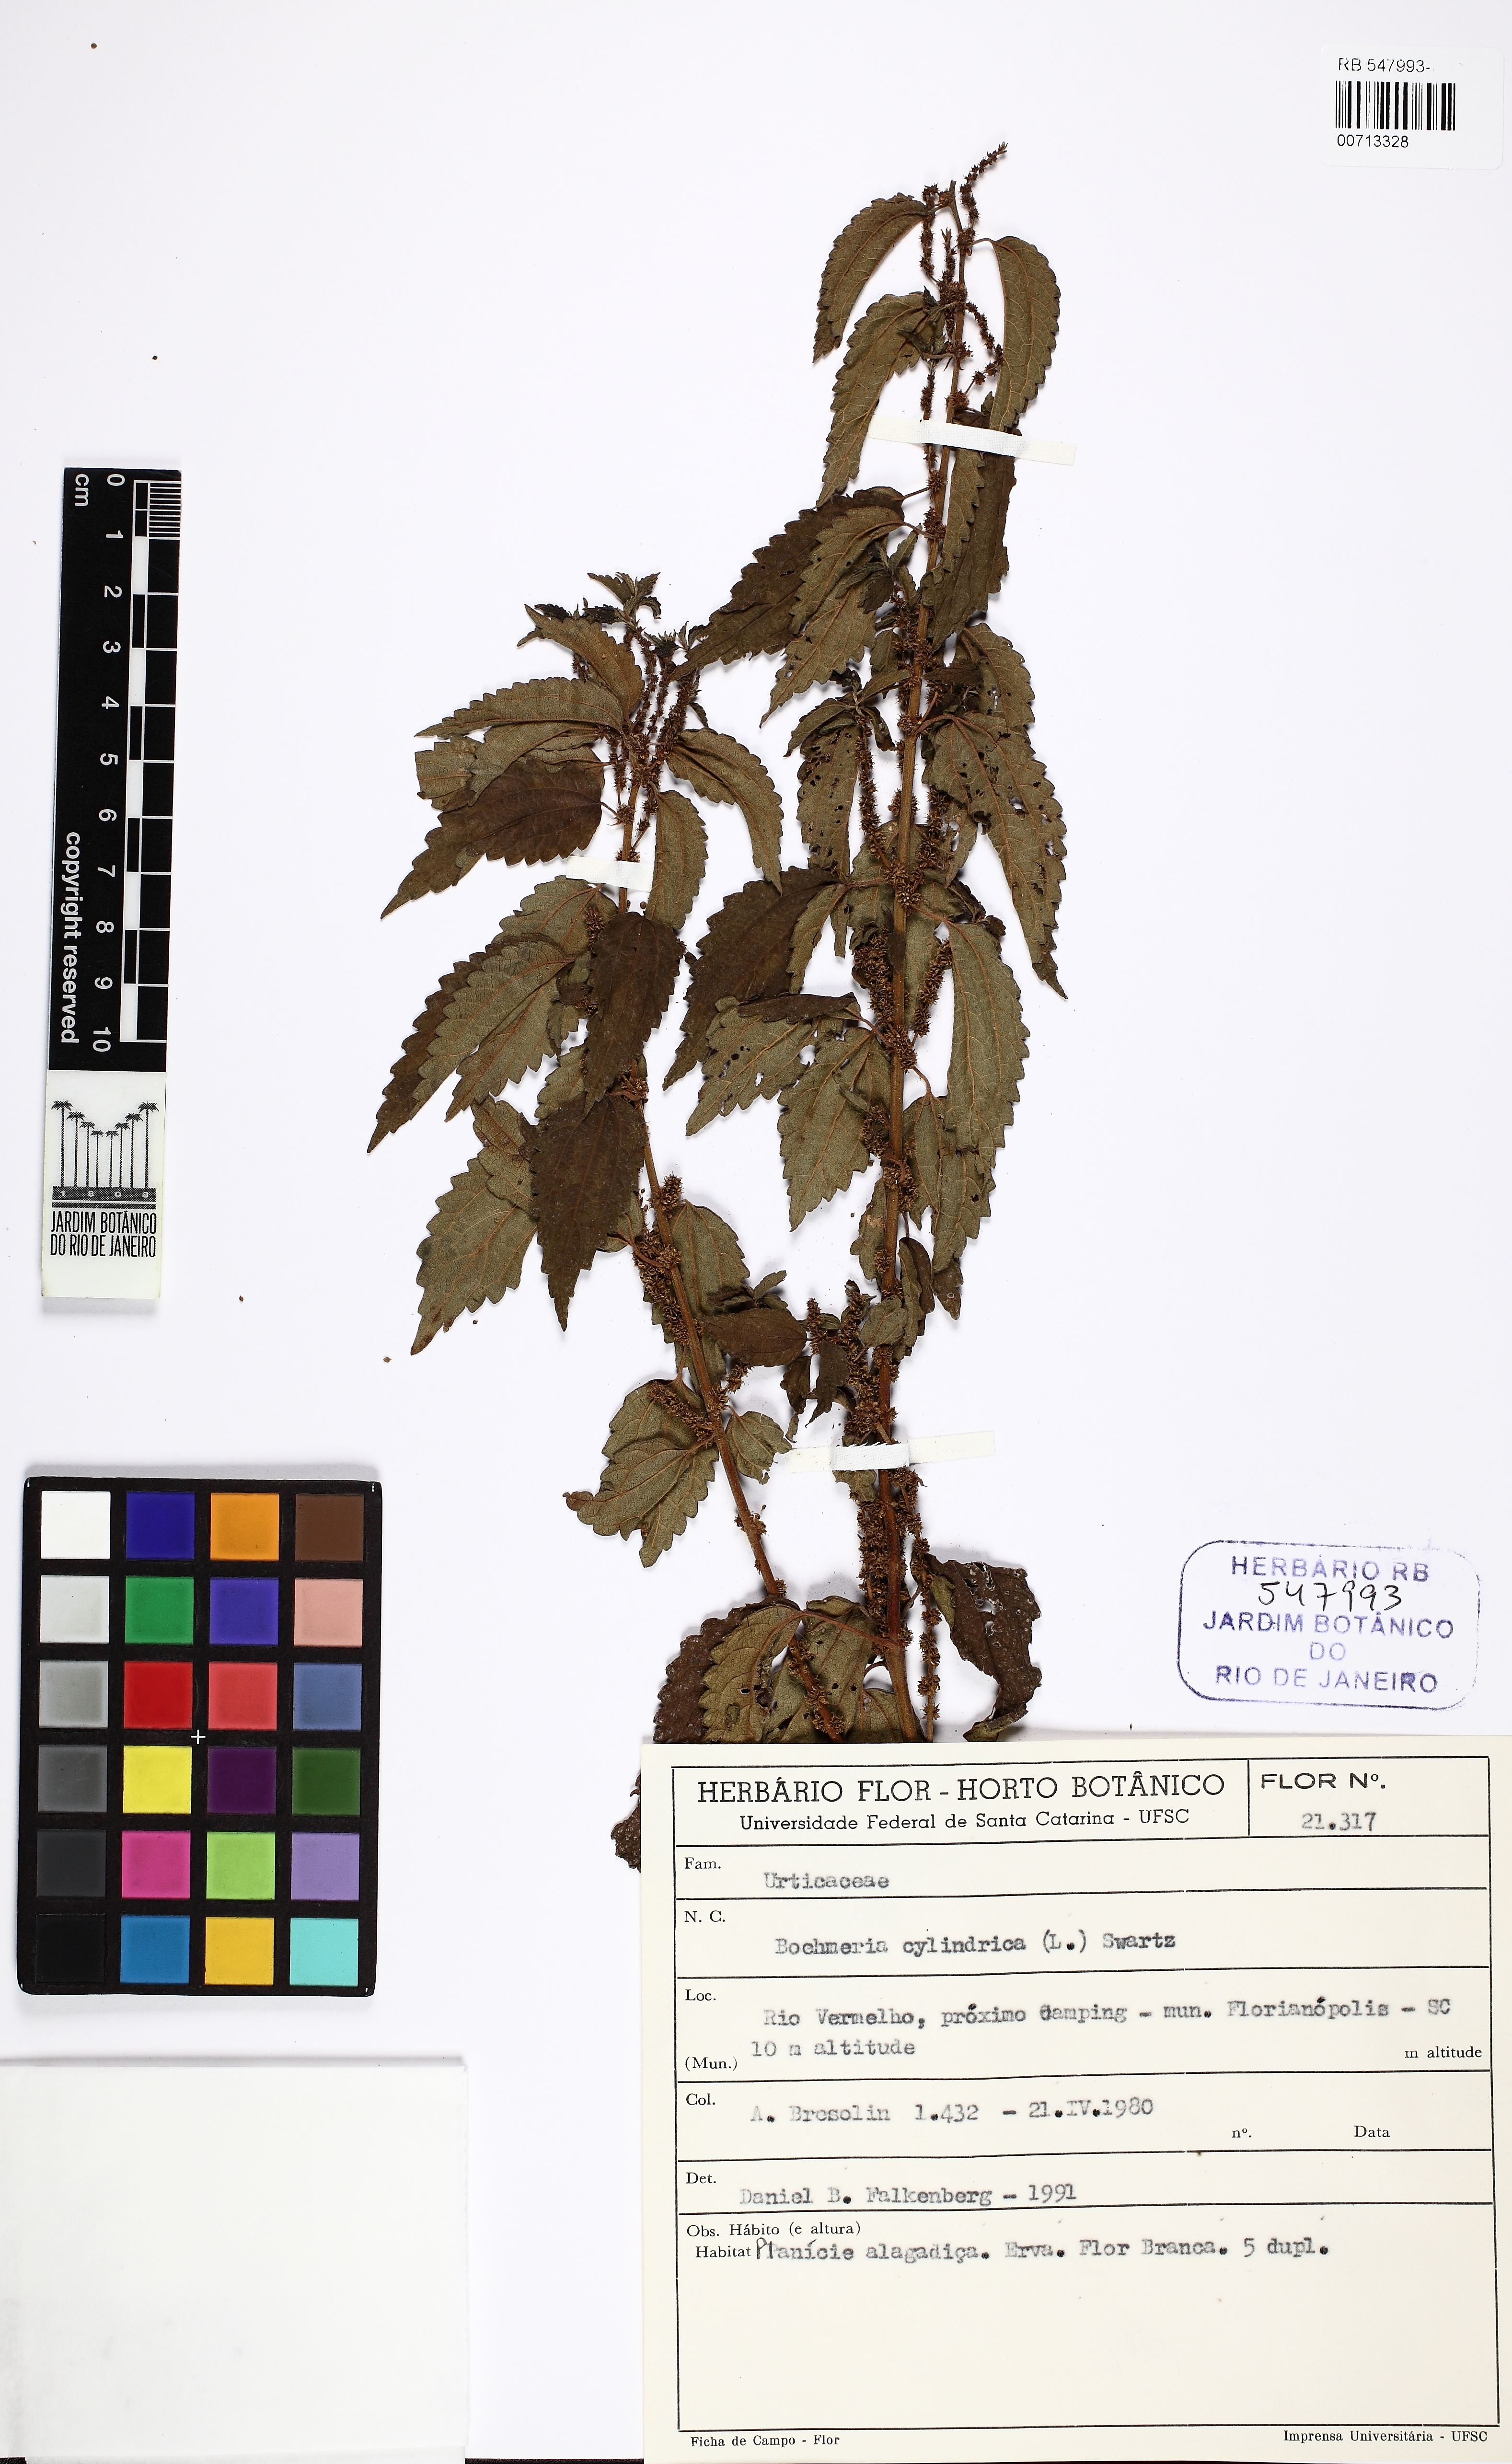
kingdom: Plantae
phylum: Tracheophyta
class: Magnoliopsida
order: Rosales
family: Urticaceae
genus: Boehmeria
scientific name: Boehmeria cylindrica
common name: Bog-hemp
